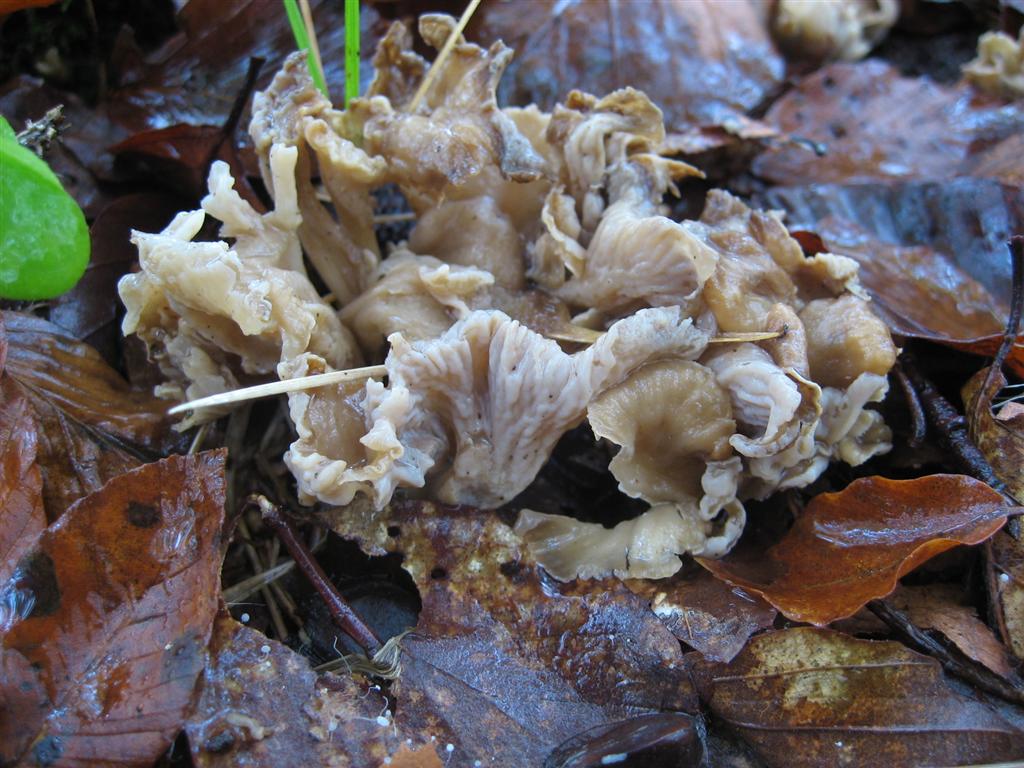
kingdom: Fungi
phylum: Basidiomycota
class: Agaricomycetes
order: Cantharellales
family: Hydnaceae
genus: Craterellus
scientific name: Craterellus undulatus
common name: liden kantarel
